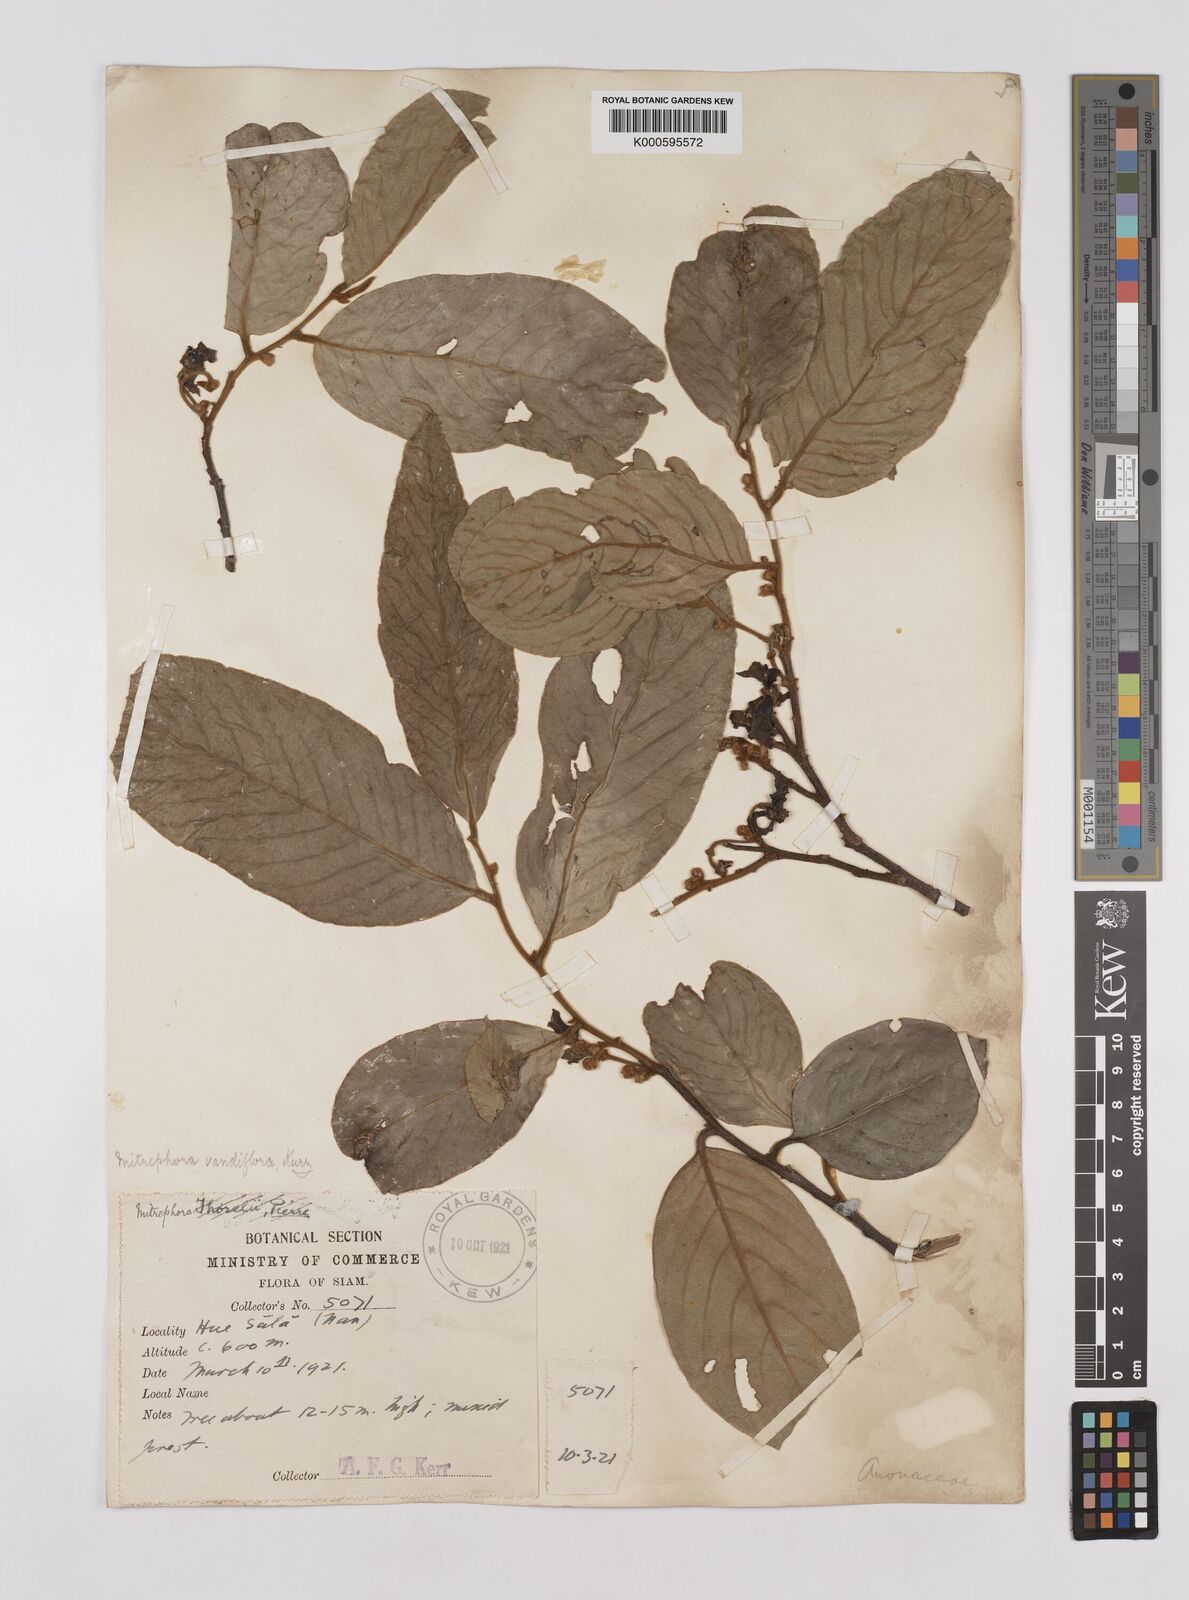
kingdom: Plantae
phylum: Tracheophyta
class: Magnoliopsida
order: Magnoliales
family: Annonaceae
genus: Mitrephora
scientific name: Mitrephora teysmannii
